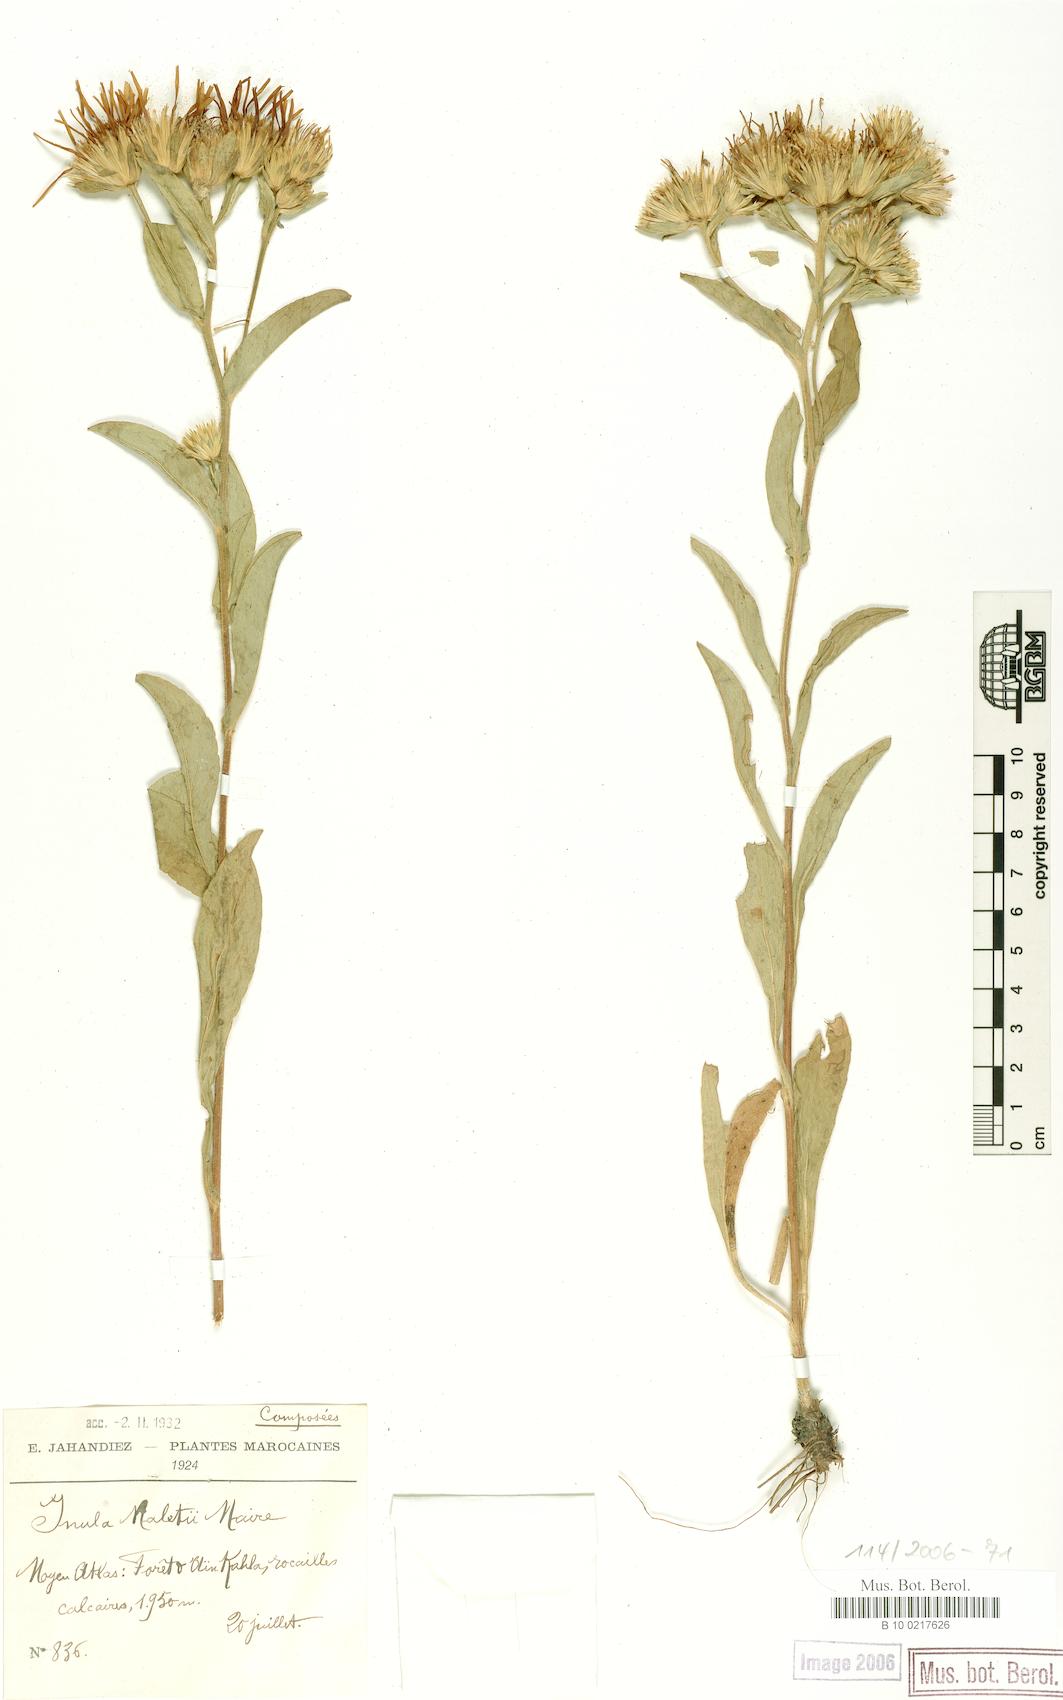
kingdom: Plantae
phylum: Tracheophyta
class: Magnoliopsida
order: Asterales
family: Asteraceae
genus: Pentanema
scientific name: Pentanema maletii
